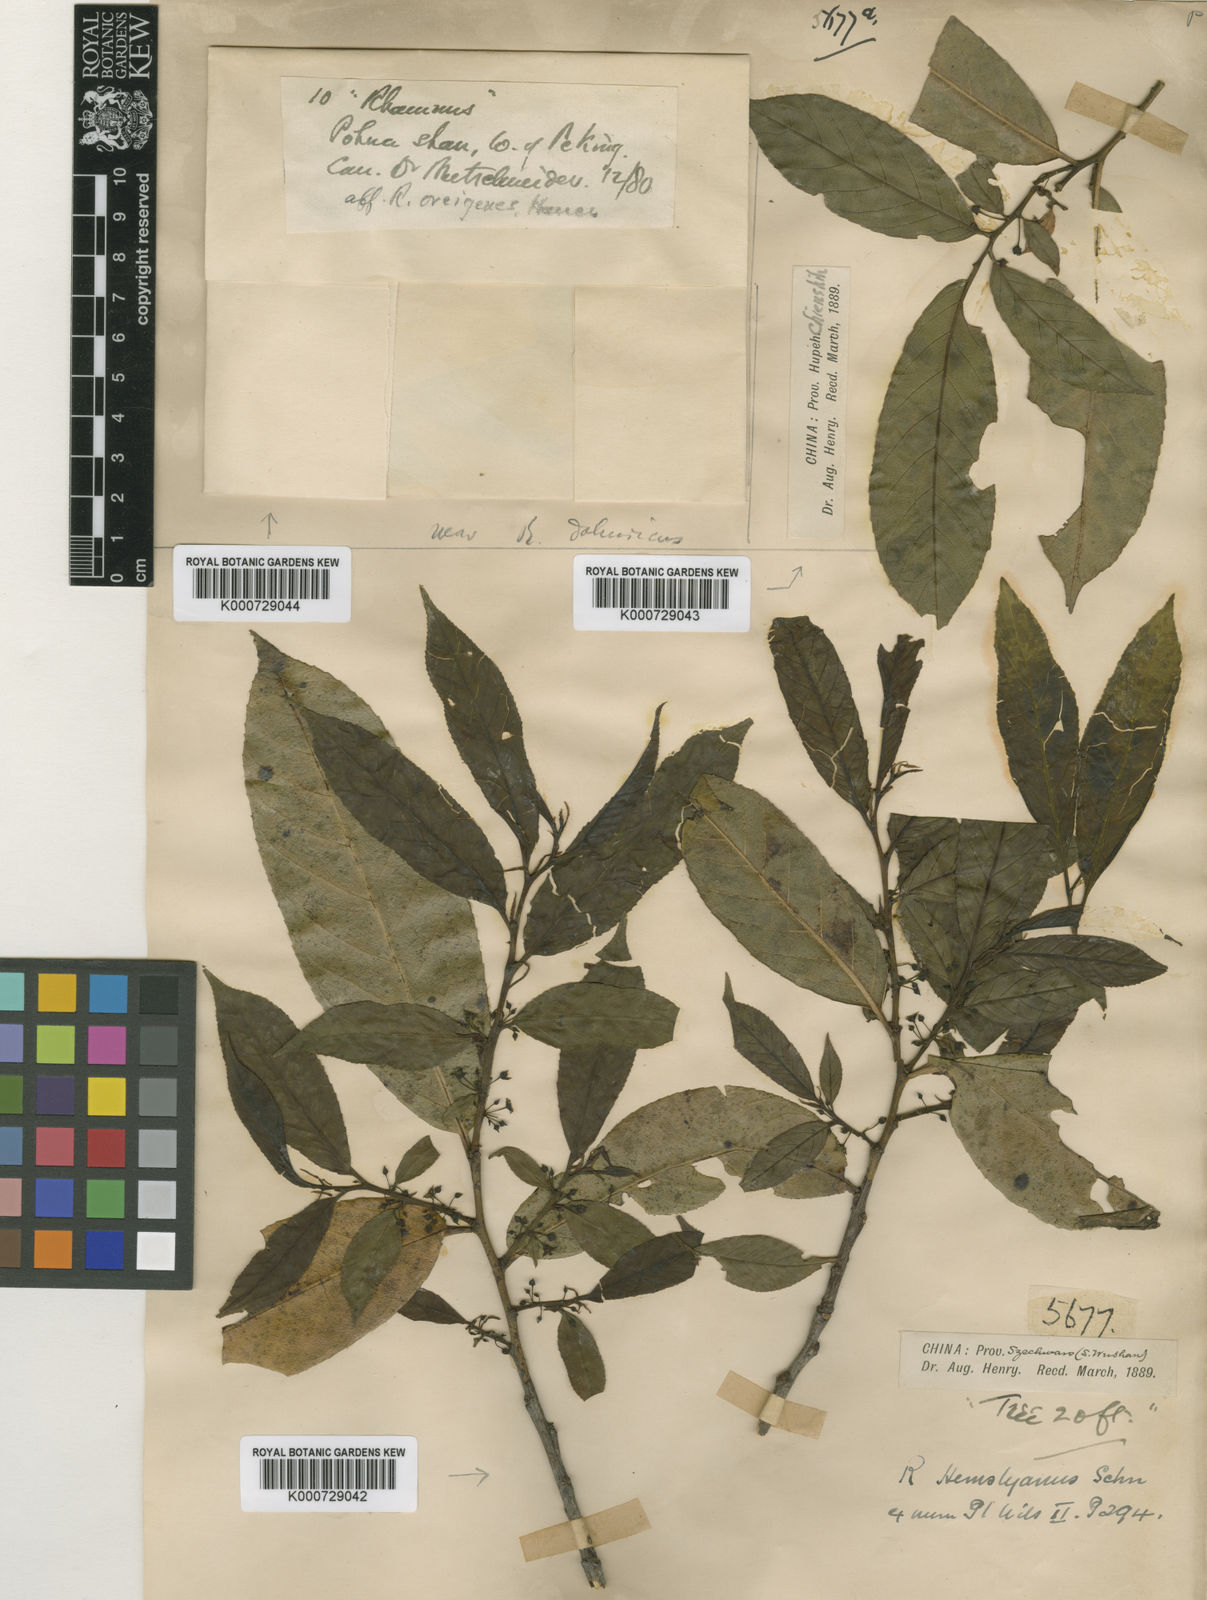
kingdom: Plantae
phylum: Tracheophyta
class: Magnoliopsida
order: Rosales
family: Rhamnaceae
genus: Rhamnus
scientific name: Rhamnus hemsleyana
